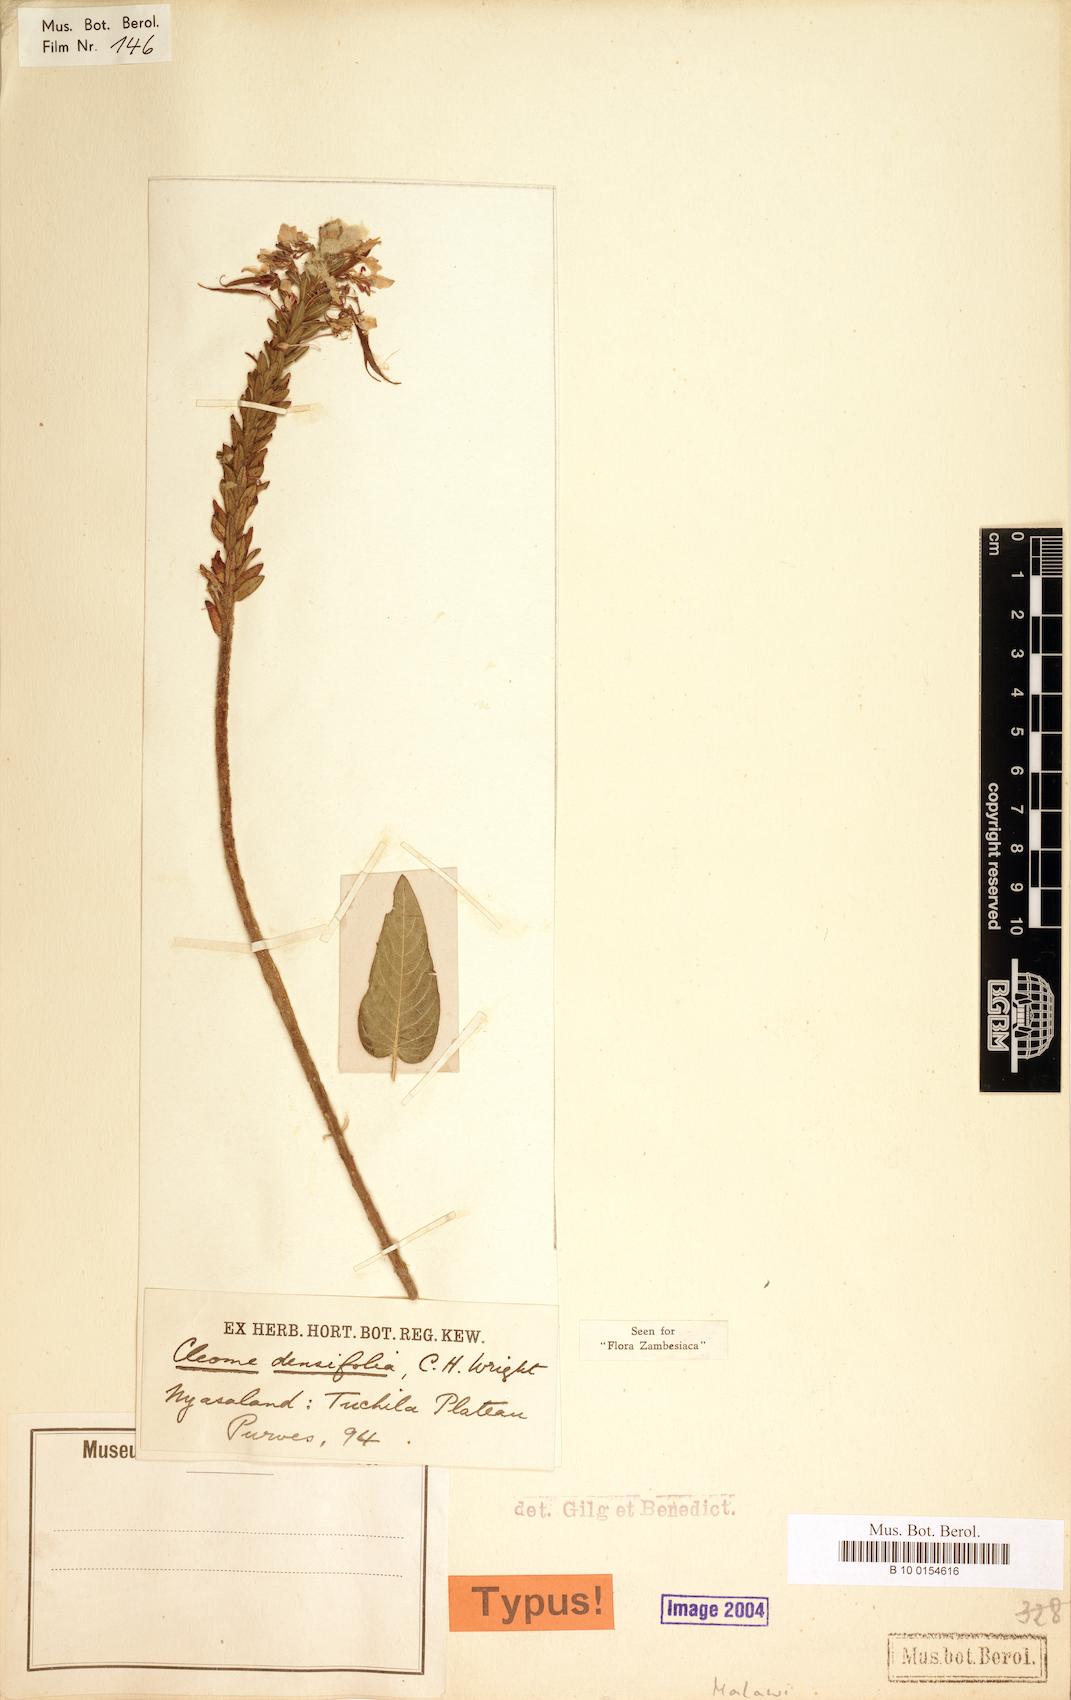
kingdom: Plantae
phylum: Tracheophyta
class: Magnoliopsida
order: Brassicales
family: Cleomaceae
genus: Sieruela
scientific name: Sieruela densifolia
